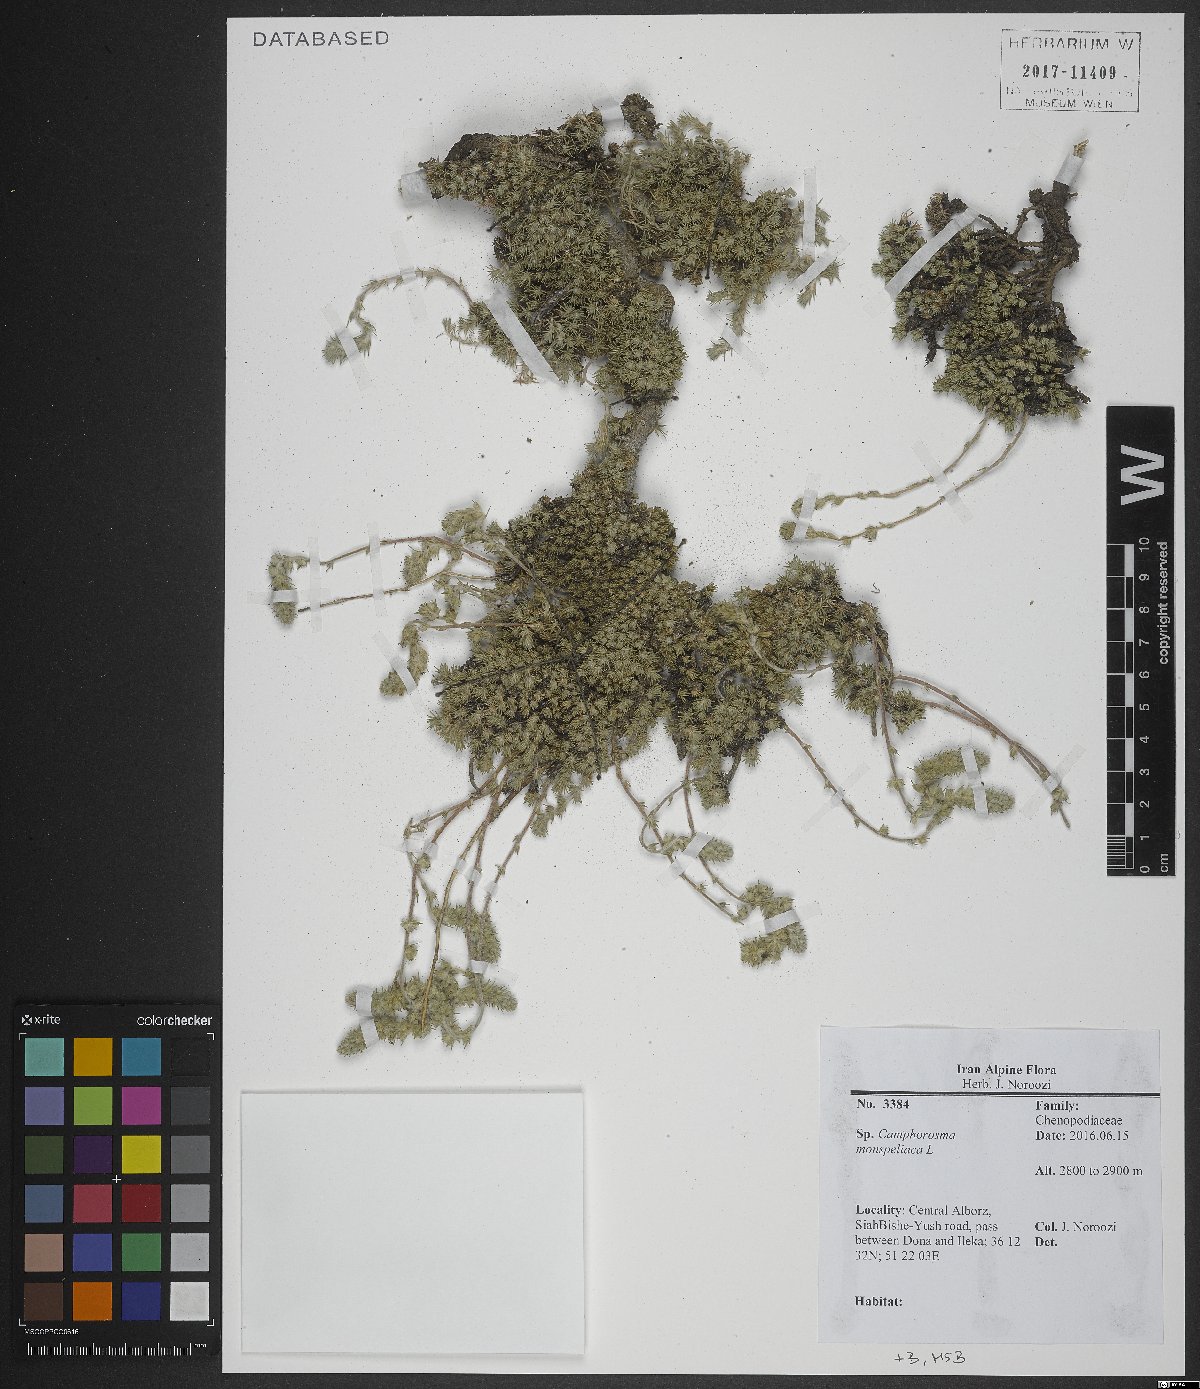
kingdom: Plantae
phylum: Tracheophyta
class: Magnoliopsida
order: Caryophyllales
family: Amaranthaceae
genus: Camphorosma
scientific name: Camphorosma monspeliaca
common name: Camphorfume
